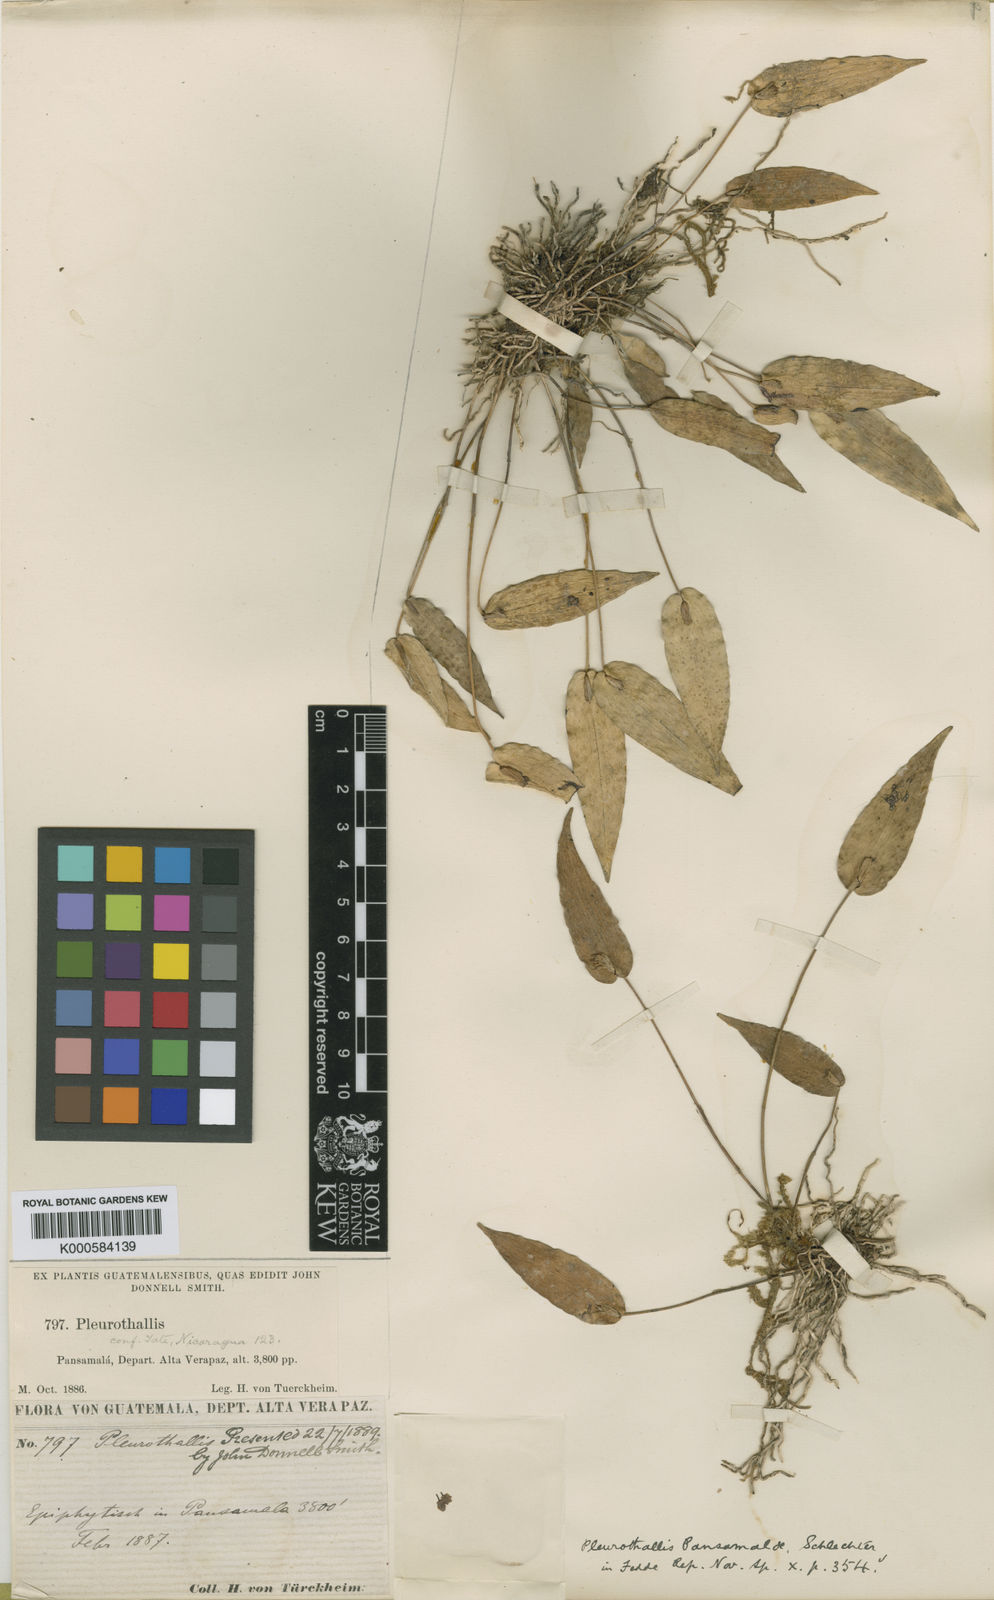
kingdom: Plantae
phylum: Tracheophyta
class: Liliopsida
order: Asparagales
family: Orchidaceae
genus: Pleurothallis
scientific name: Pleurothallis pansamalae
